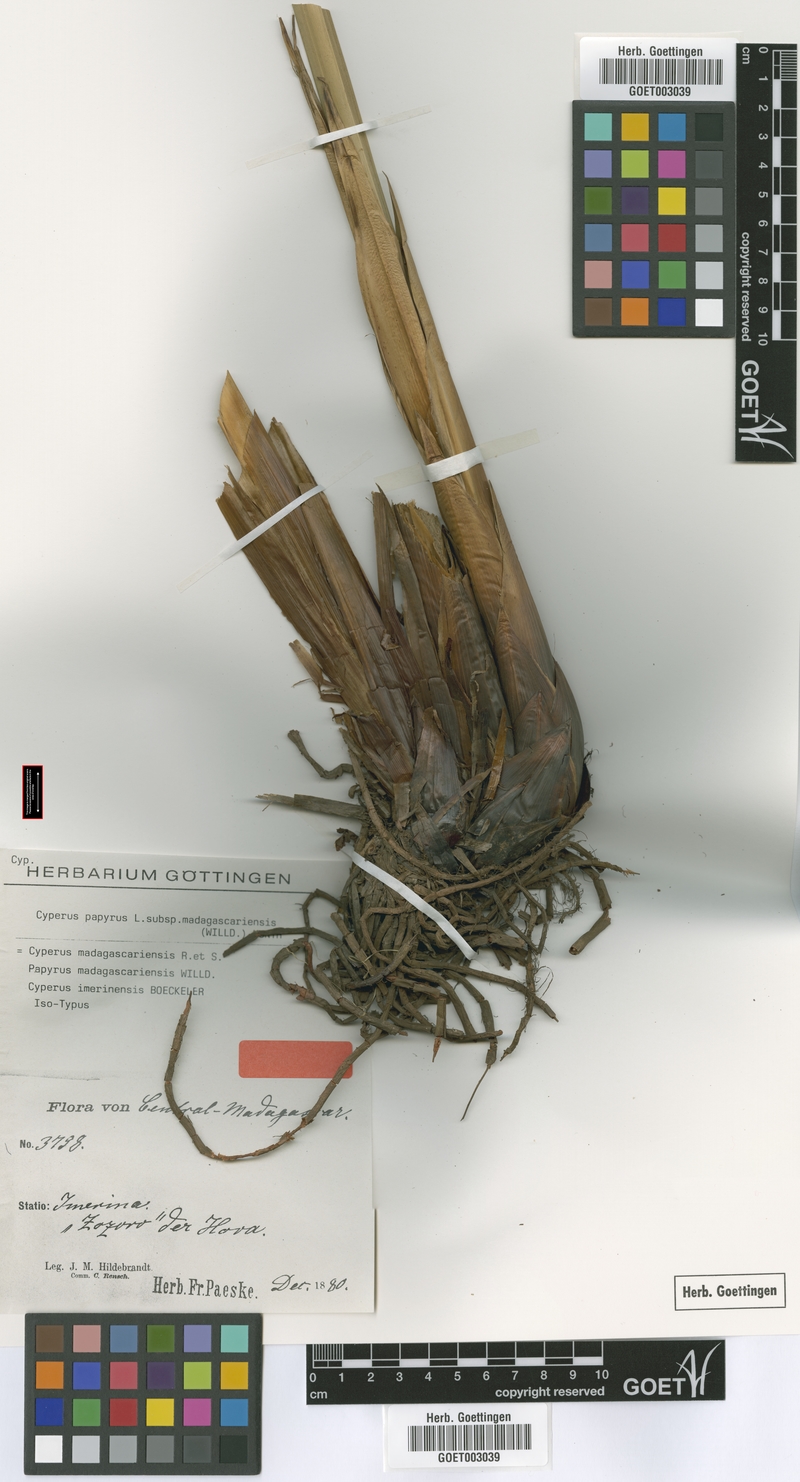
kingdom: Plantae
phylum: Tracheophyta
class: Liliopsida
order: Poales
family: Cyperaceae
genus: Cyperus
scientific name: Cyperus papyrus
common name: Papyrus
